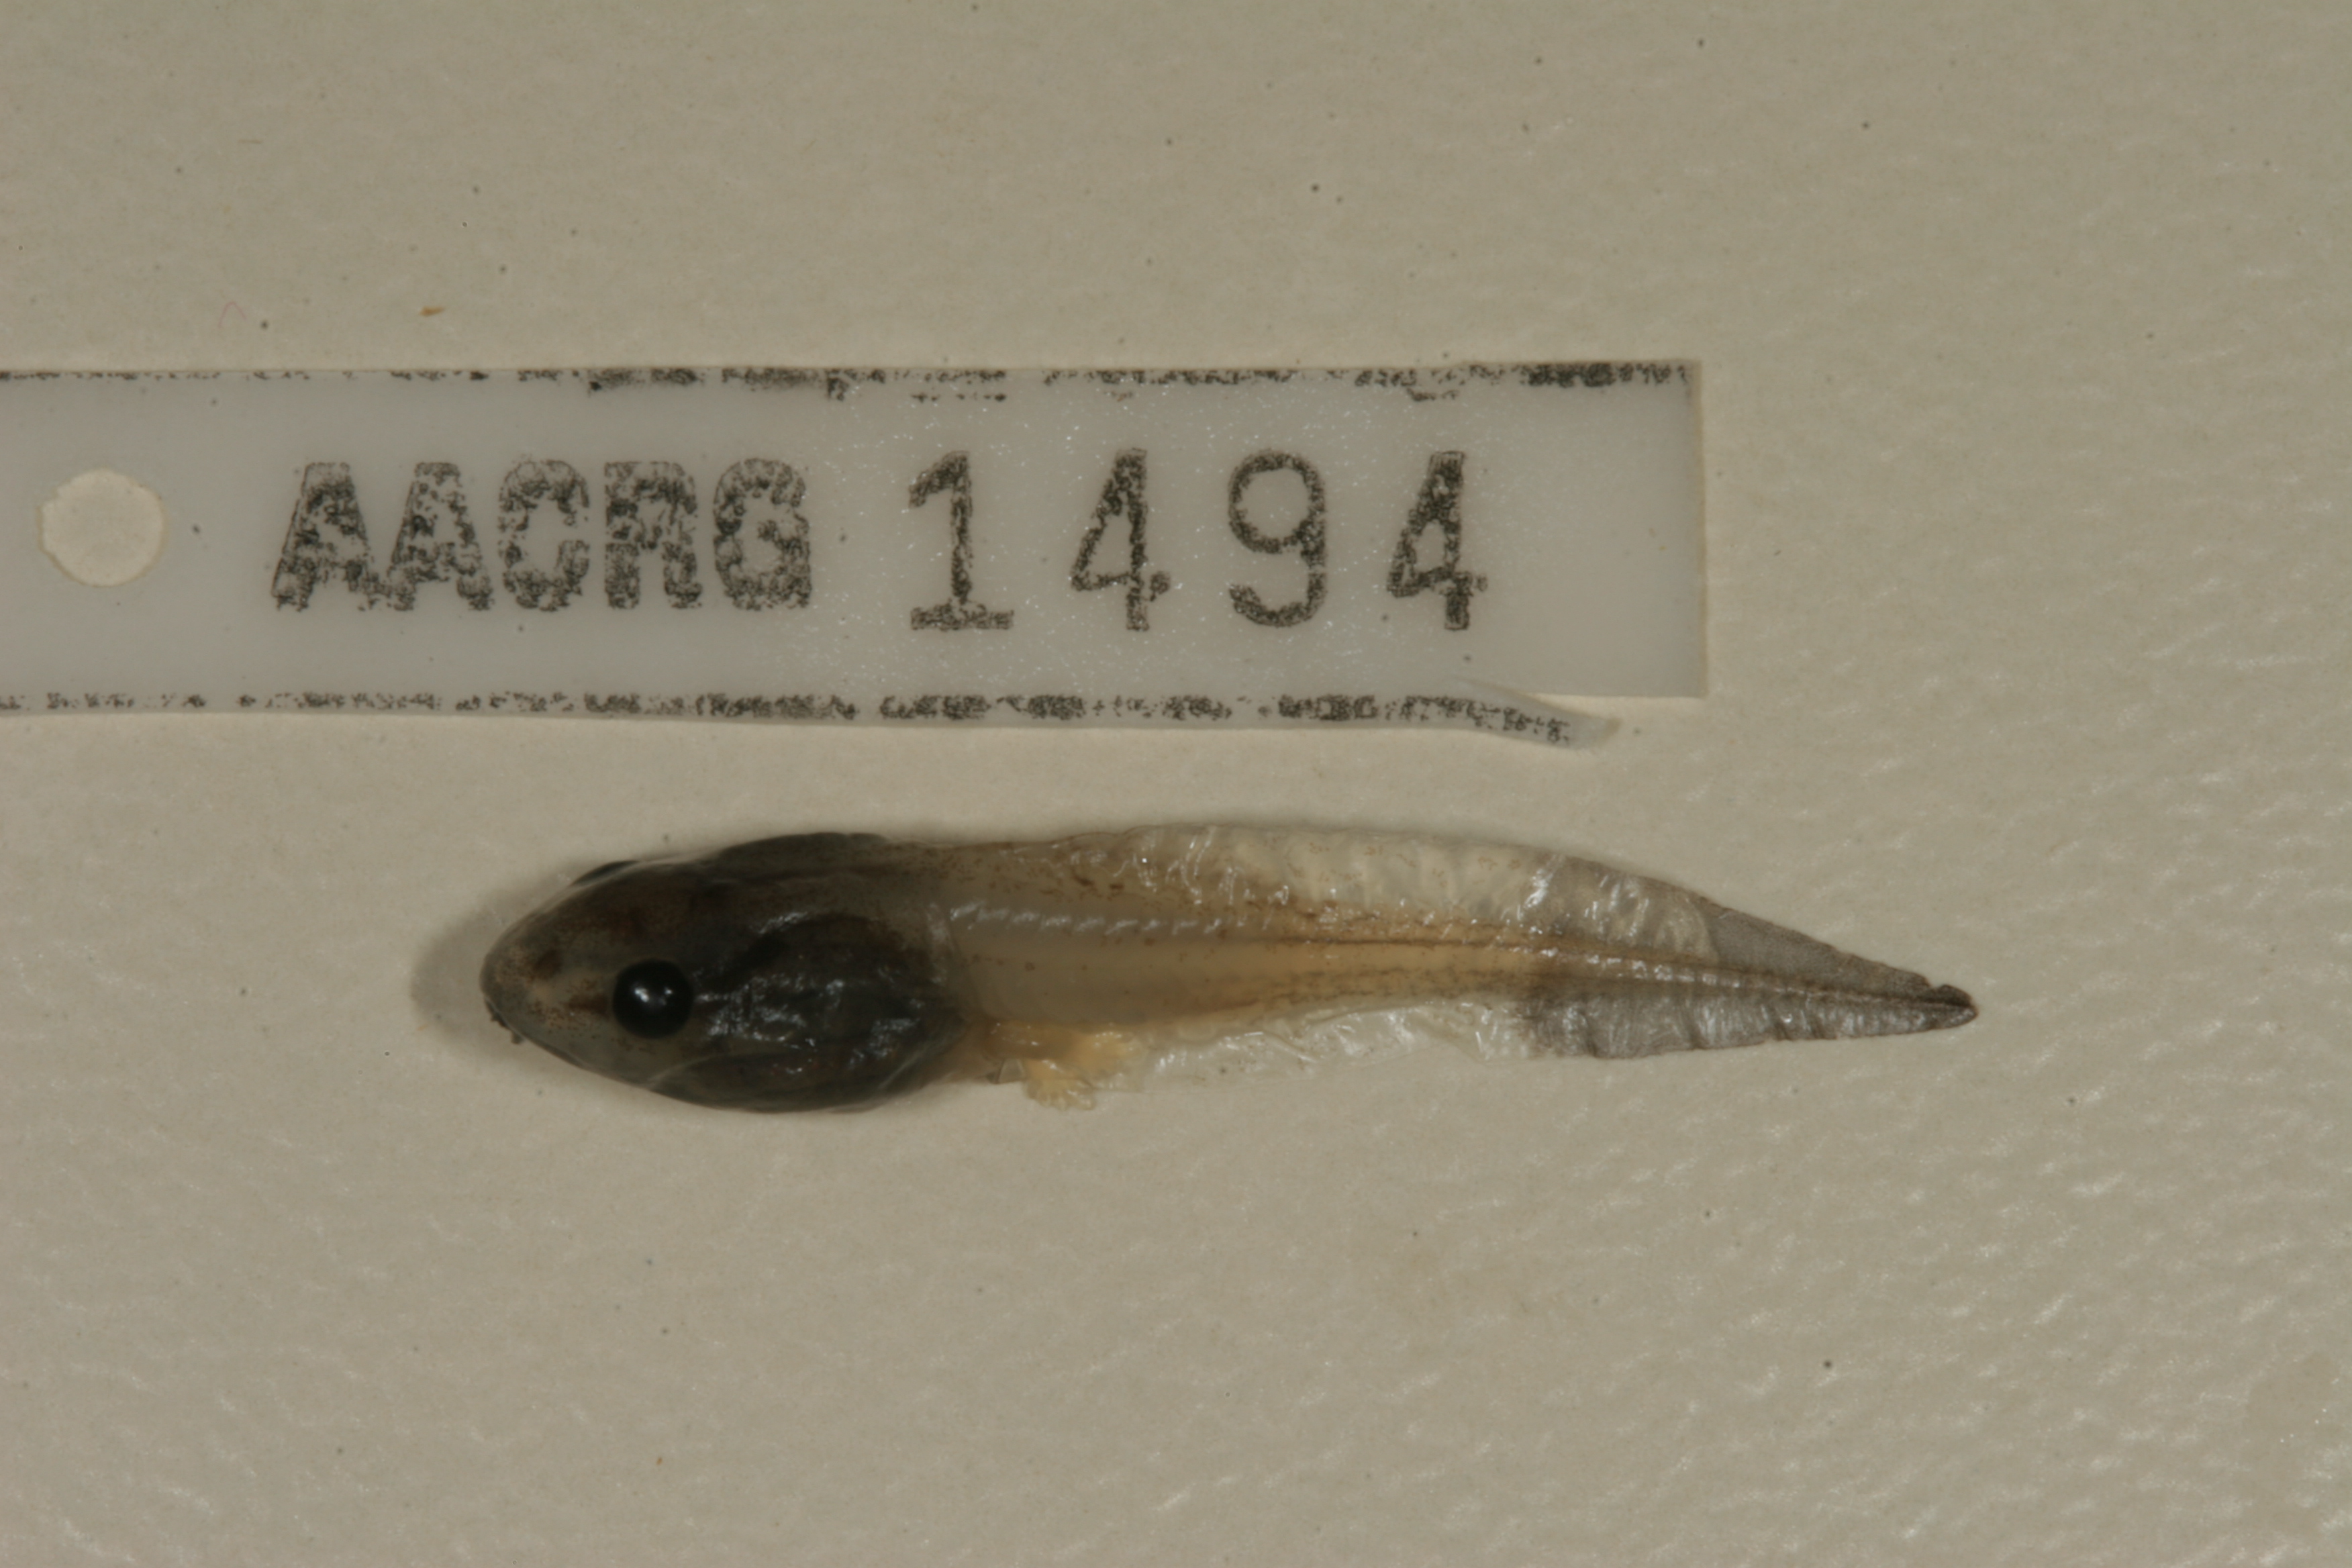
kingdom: Animalia
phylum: Chordata
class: Amphibia
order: Anura
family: Hyperoliidae
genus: Afrixalus
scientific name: Afrixalus aureus
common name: Golden banana frog
